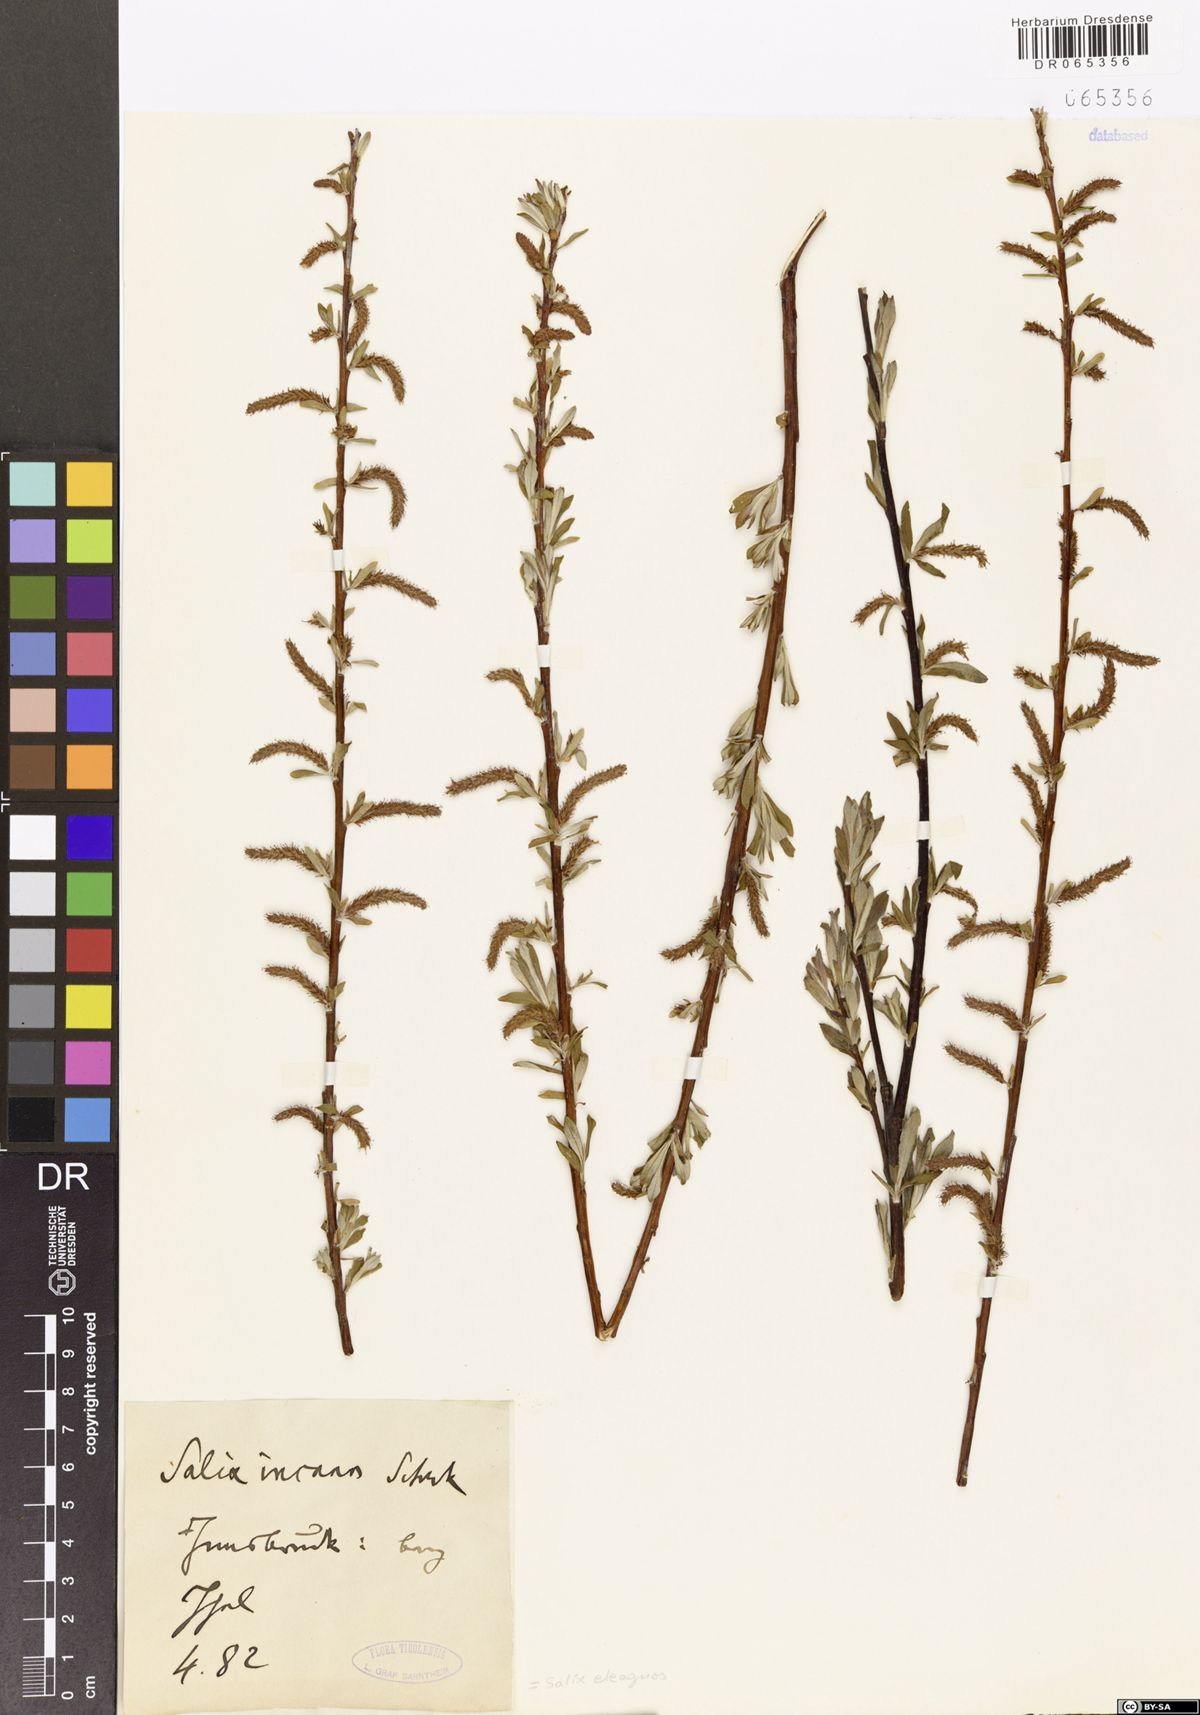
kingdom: Plantae
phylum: Tracheophyta
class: Magnoliopsida
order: Malpighiales
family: Salicaceae
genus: Salix
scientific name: Salix eleagnos
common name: Elaeagnus willow
